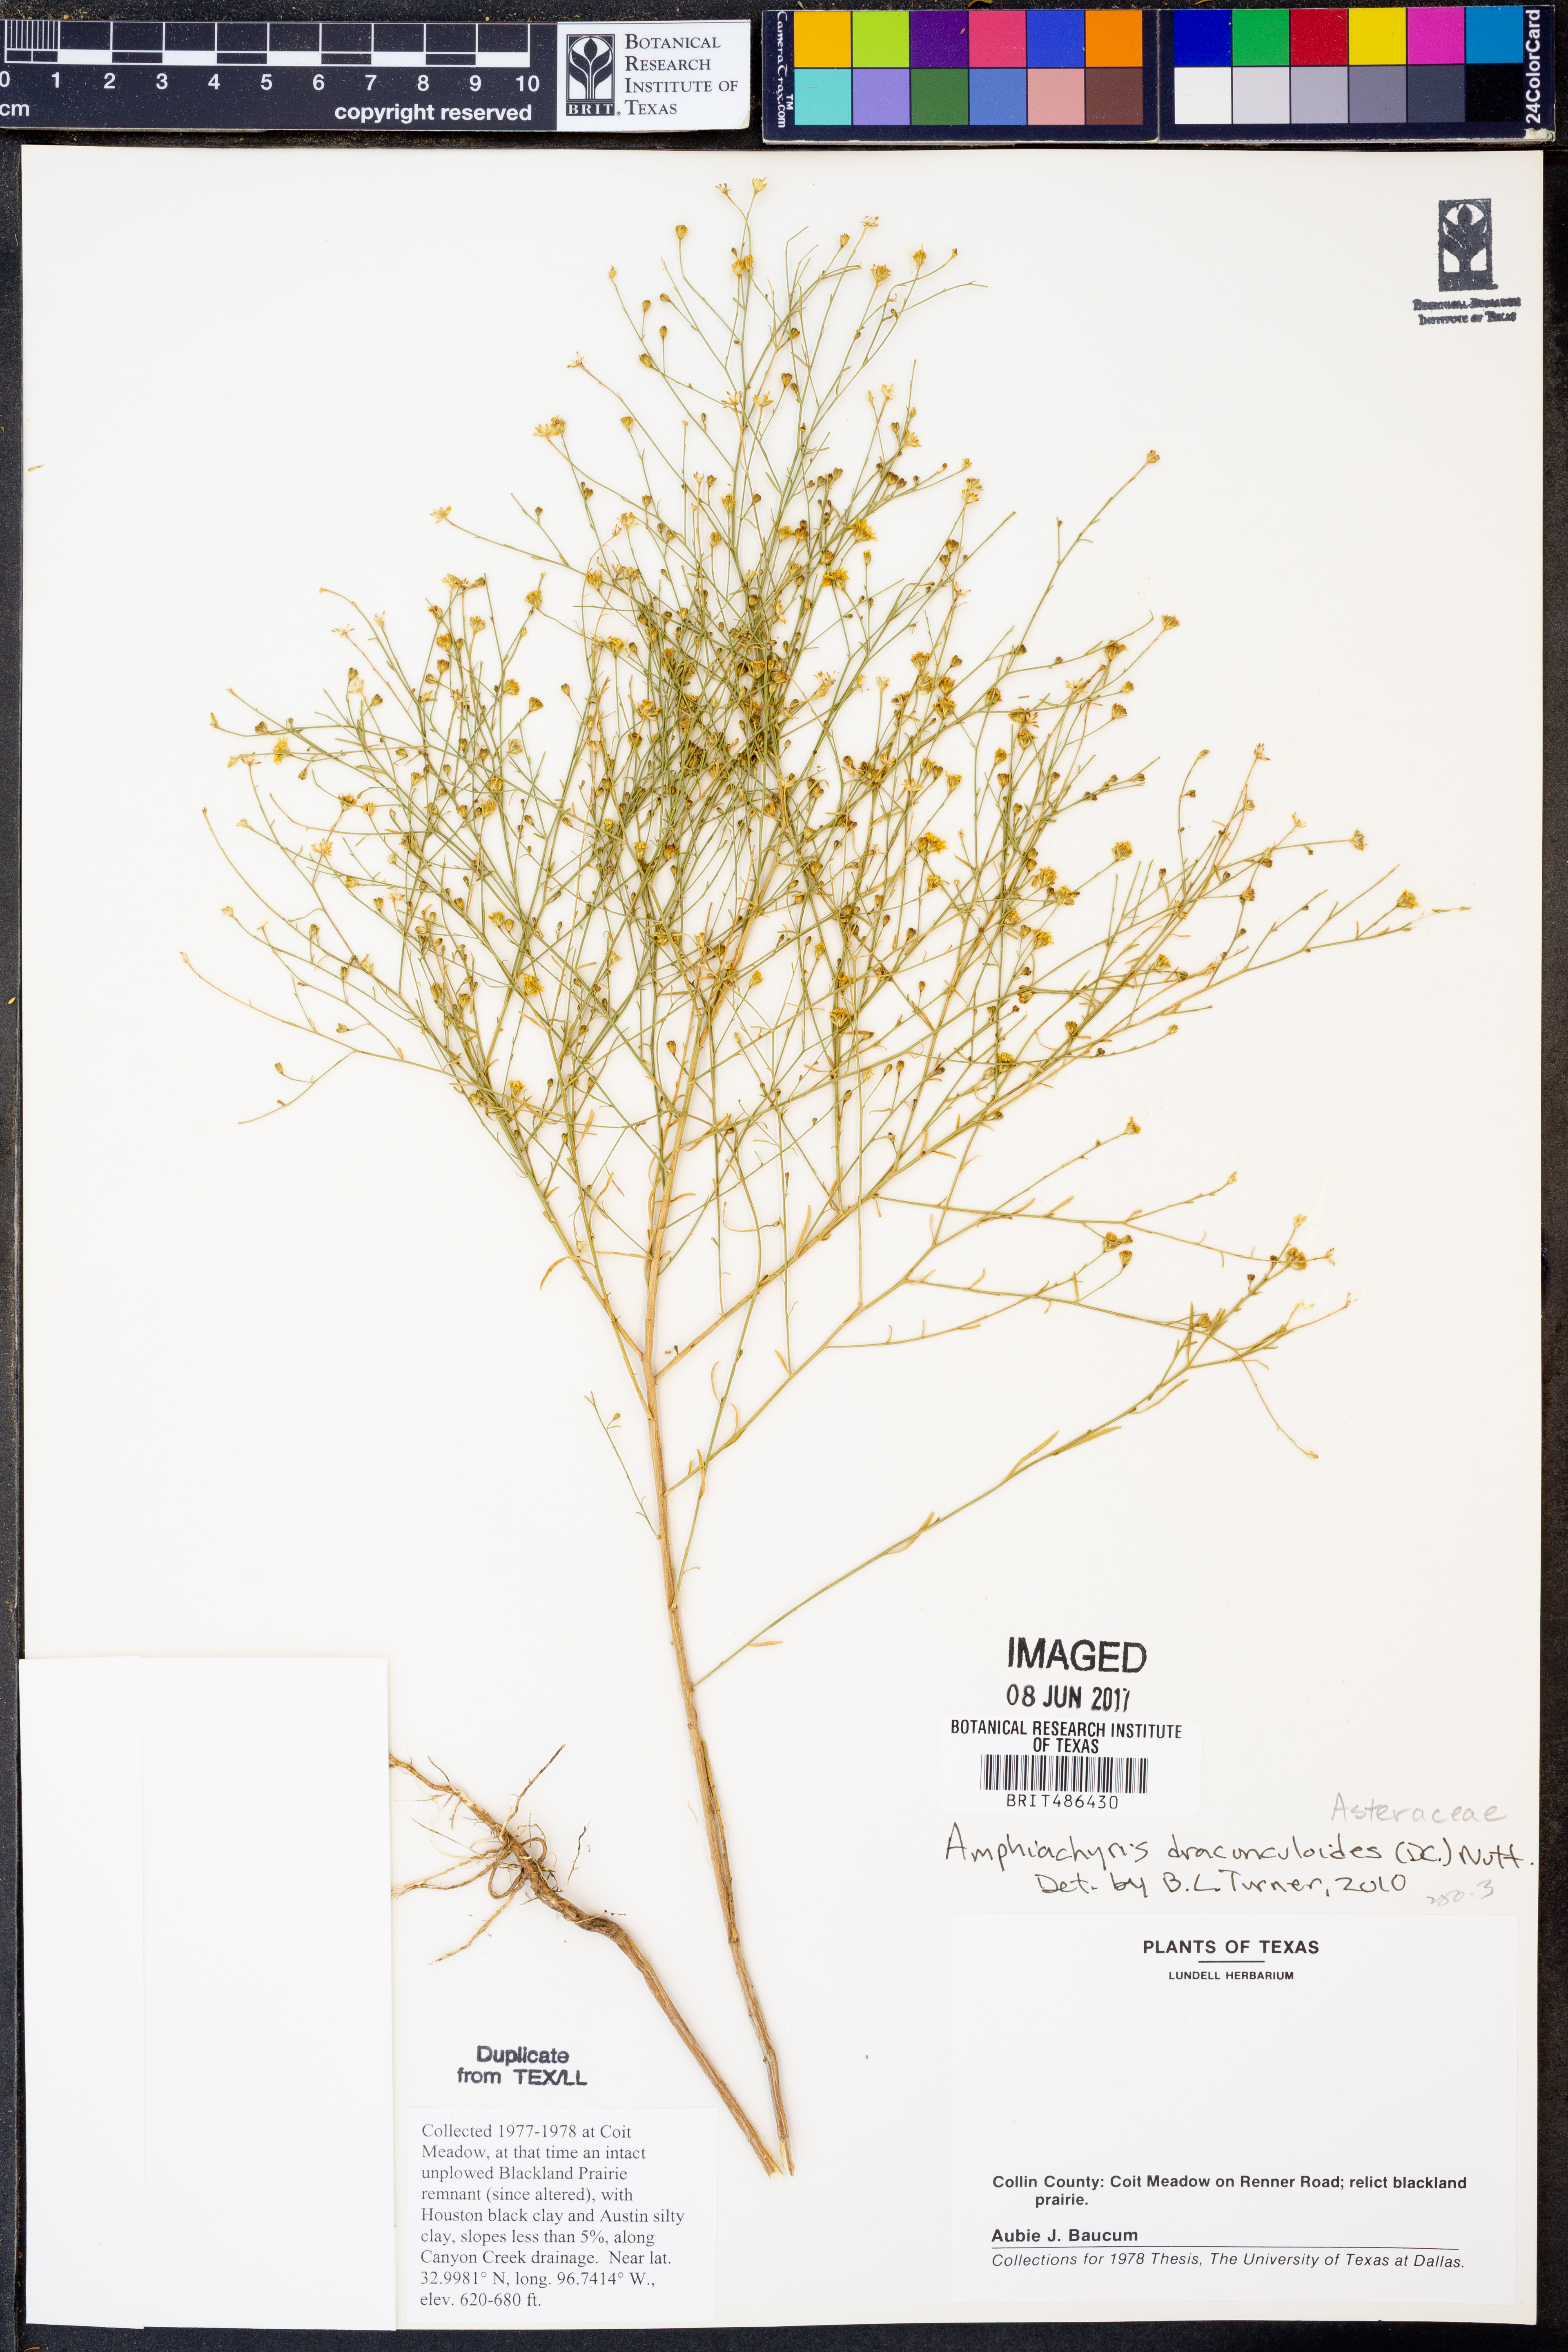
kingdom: Plantae
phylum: Tracheophyta
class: Magnoliopsida
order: Asterales
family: Asteraceae
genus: Amphiachyris
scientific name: Amphiachyris dracunculoides
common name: Broomweed
